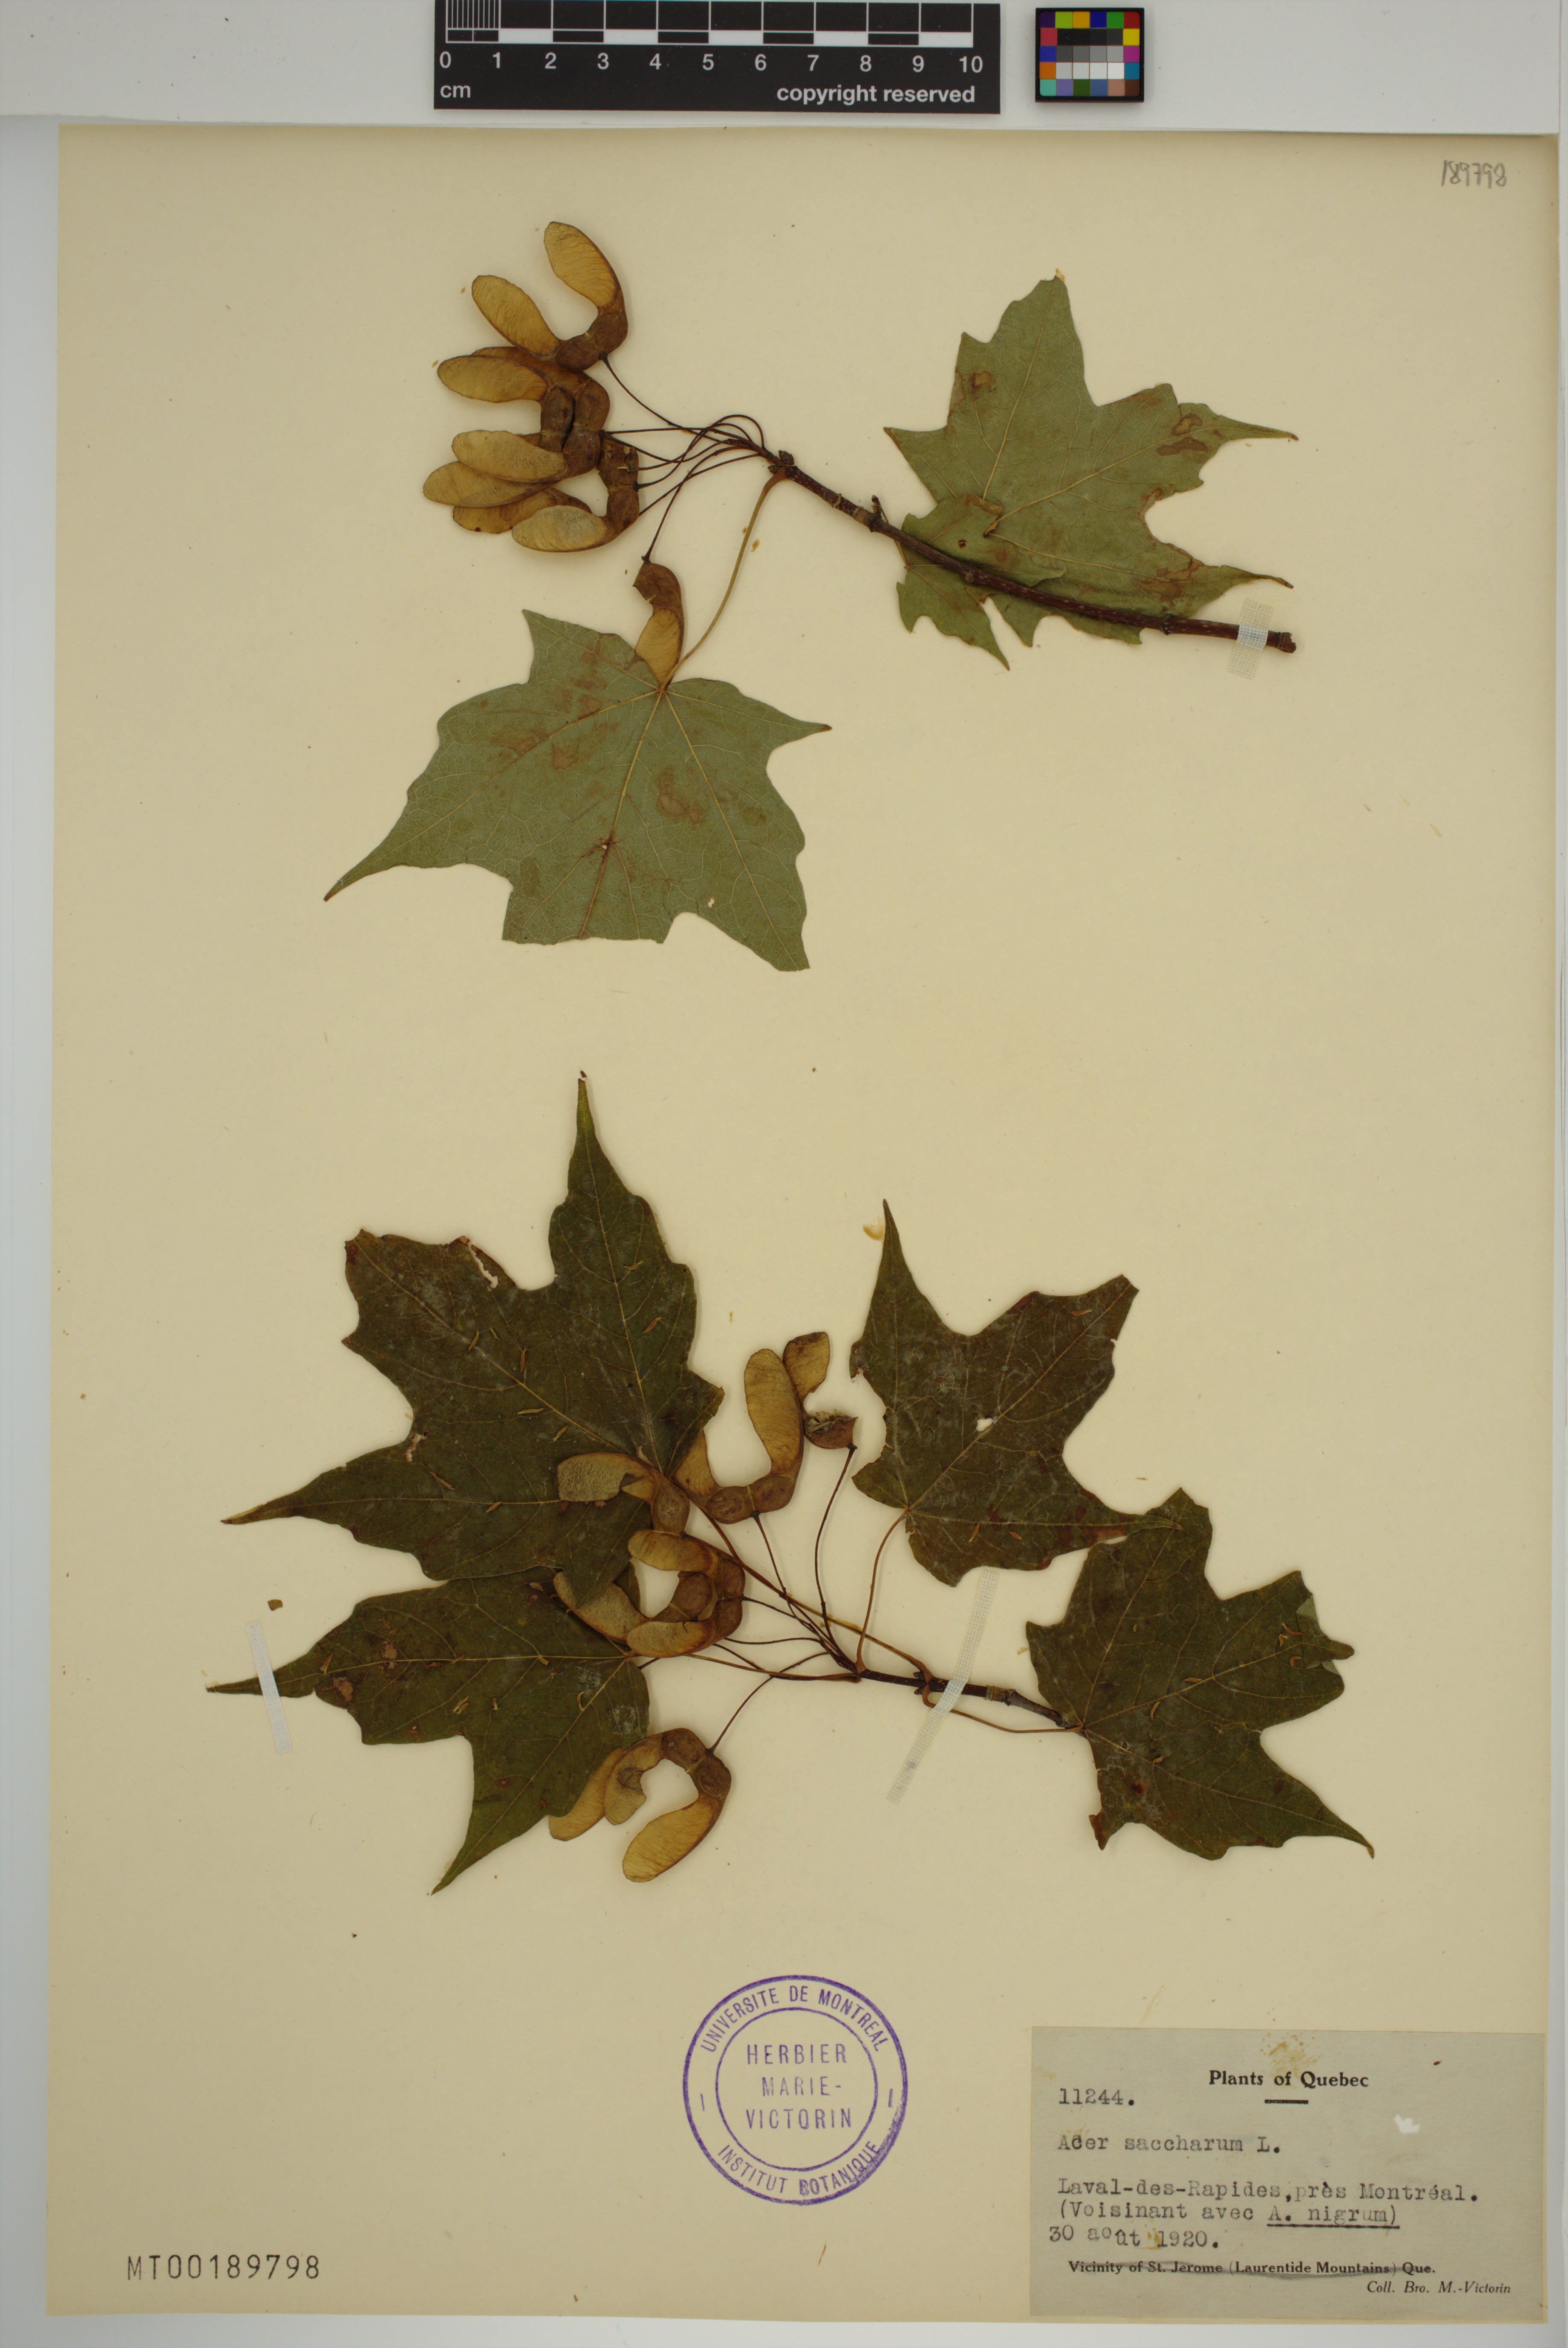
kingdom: Plantae
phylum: Tracheophyta
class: Magnoliopsida
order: Sapindales
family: Sapindaceae
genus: Acer
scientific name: Acer saccharum
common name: Sugar maple
